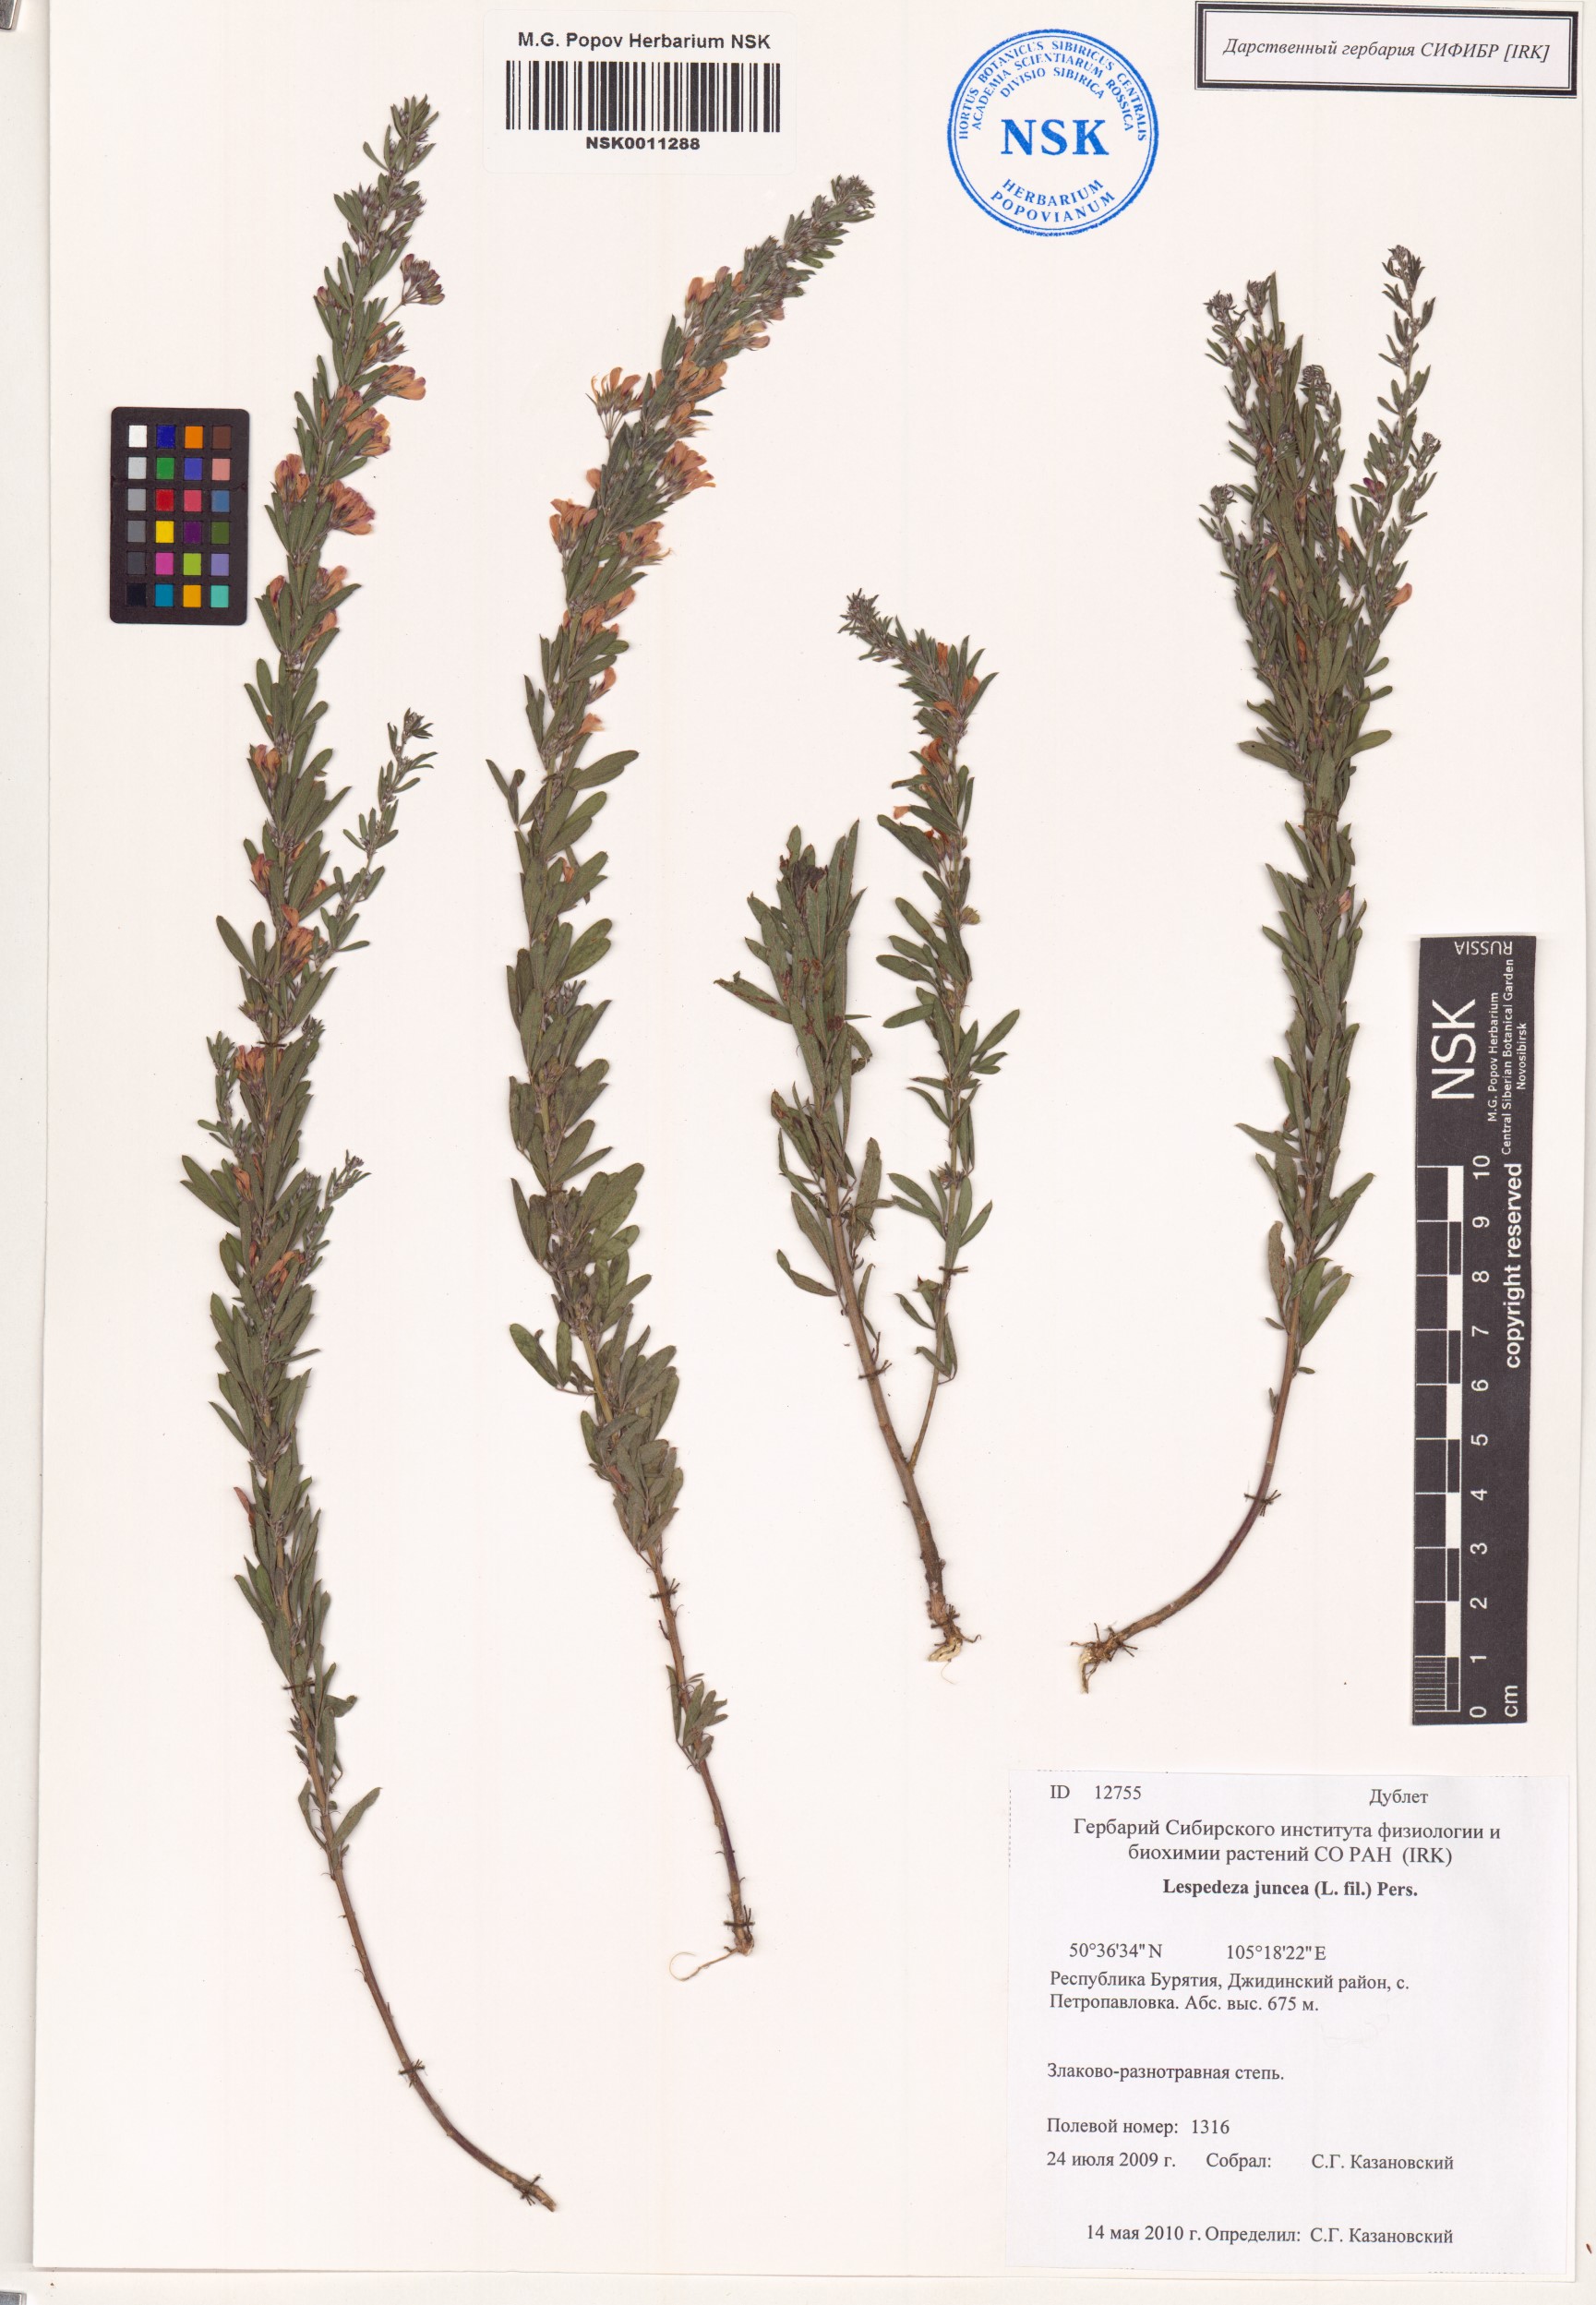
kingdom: Plantae
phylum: Tracheophyta
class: Magnoliopsida
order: Fabales
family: Fabaceae
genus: Lespedeza
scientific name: Lespedeza juncea
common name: Siberian lespedeza
